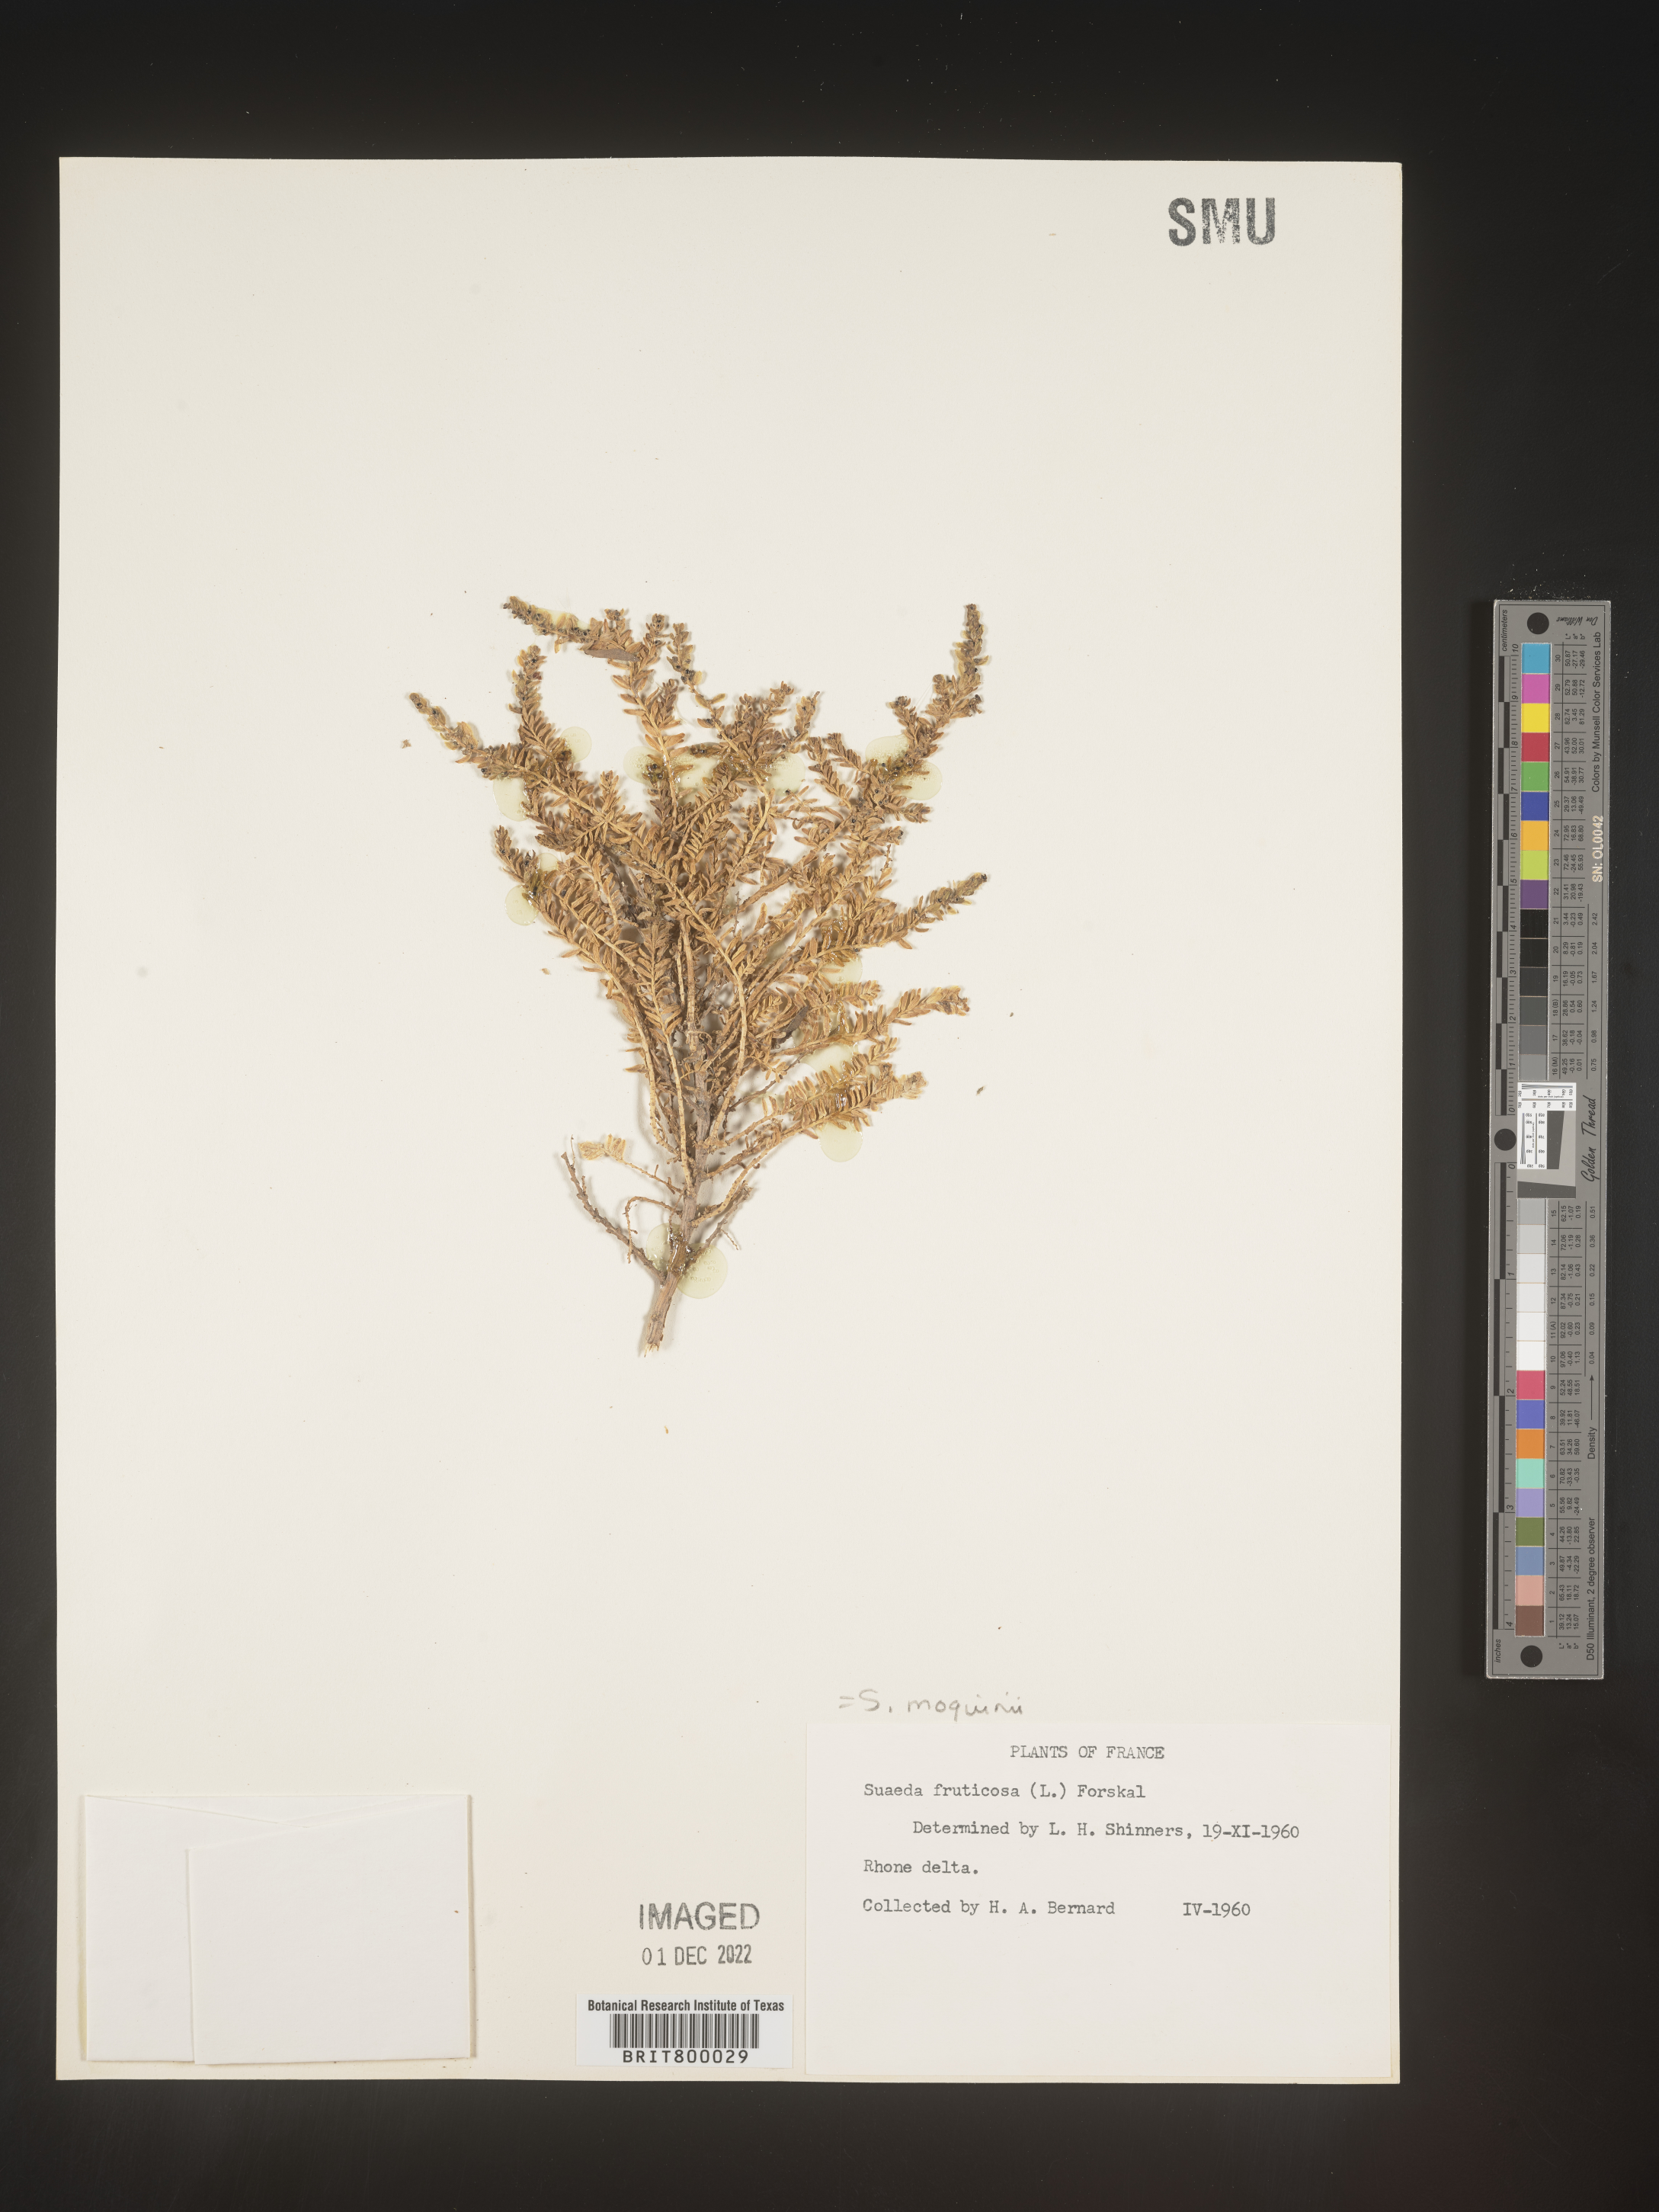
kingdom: Plantae
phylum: Tracheophyta
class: Magnoliopsida
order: Caryophyllales
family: Amaranthaceae
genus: Suaeda
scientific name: Suaeda
